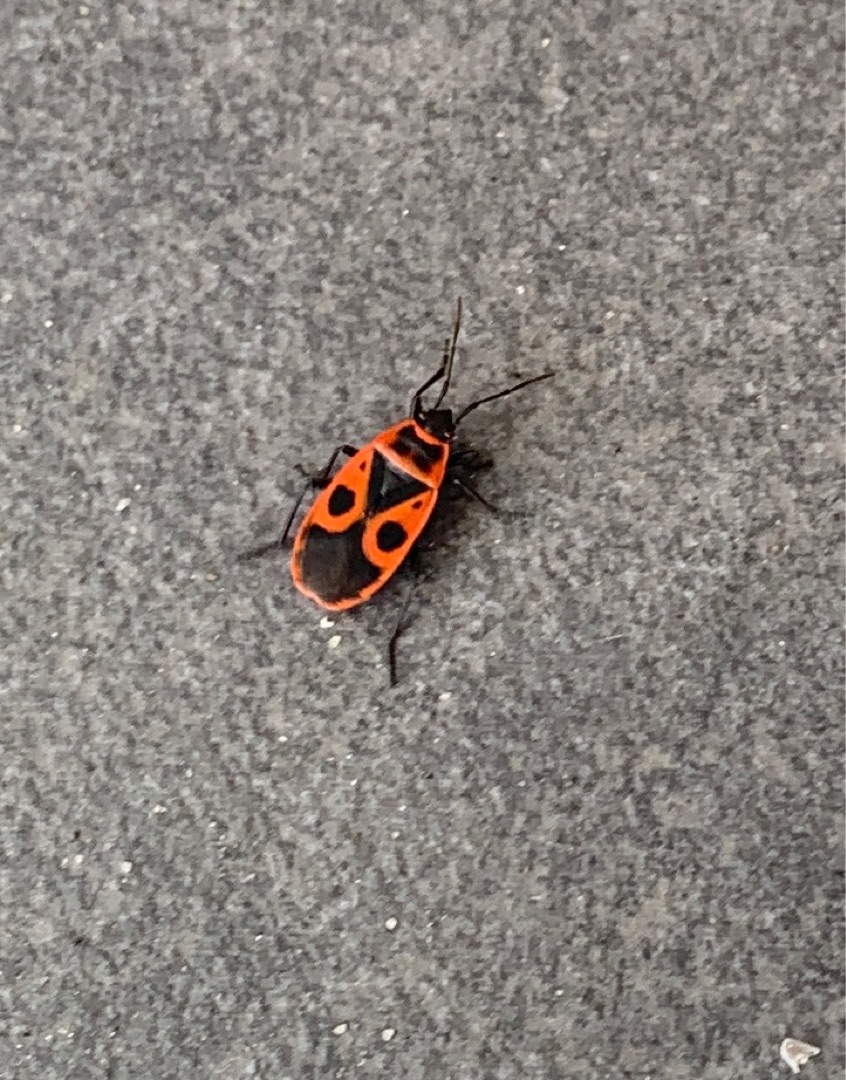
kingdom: Animalia
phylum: Arthropoda
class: Insecta
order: Hemiptera
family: Pyrrhocoridae
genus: Pyrrhocoris
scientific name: Pyrrhocoris apterus
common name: Ildtæge
